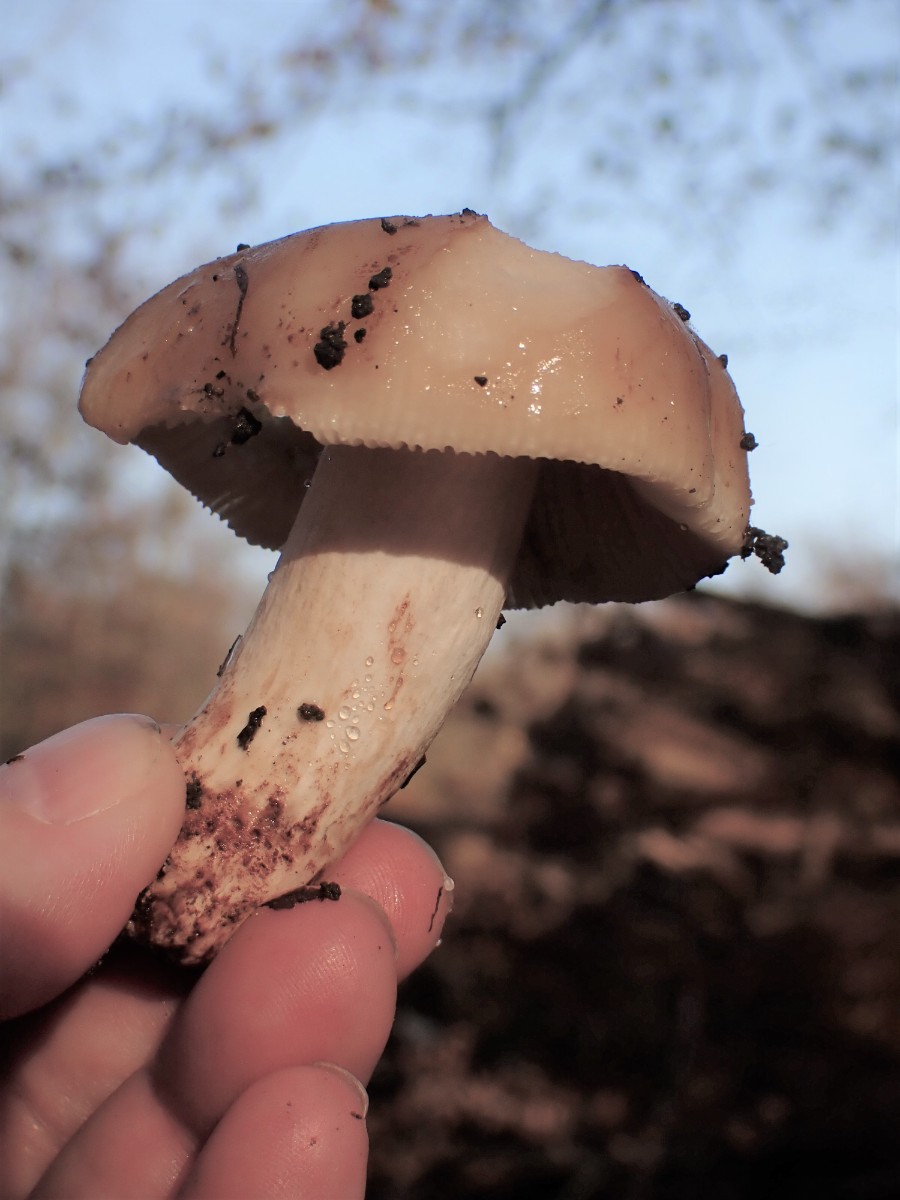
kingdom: Fungi
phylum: Basidiomycota
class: Agaricomycetes
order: Russulales
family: Russulaceae
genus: Russula
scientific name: Russula
